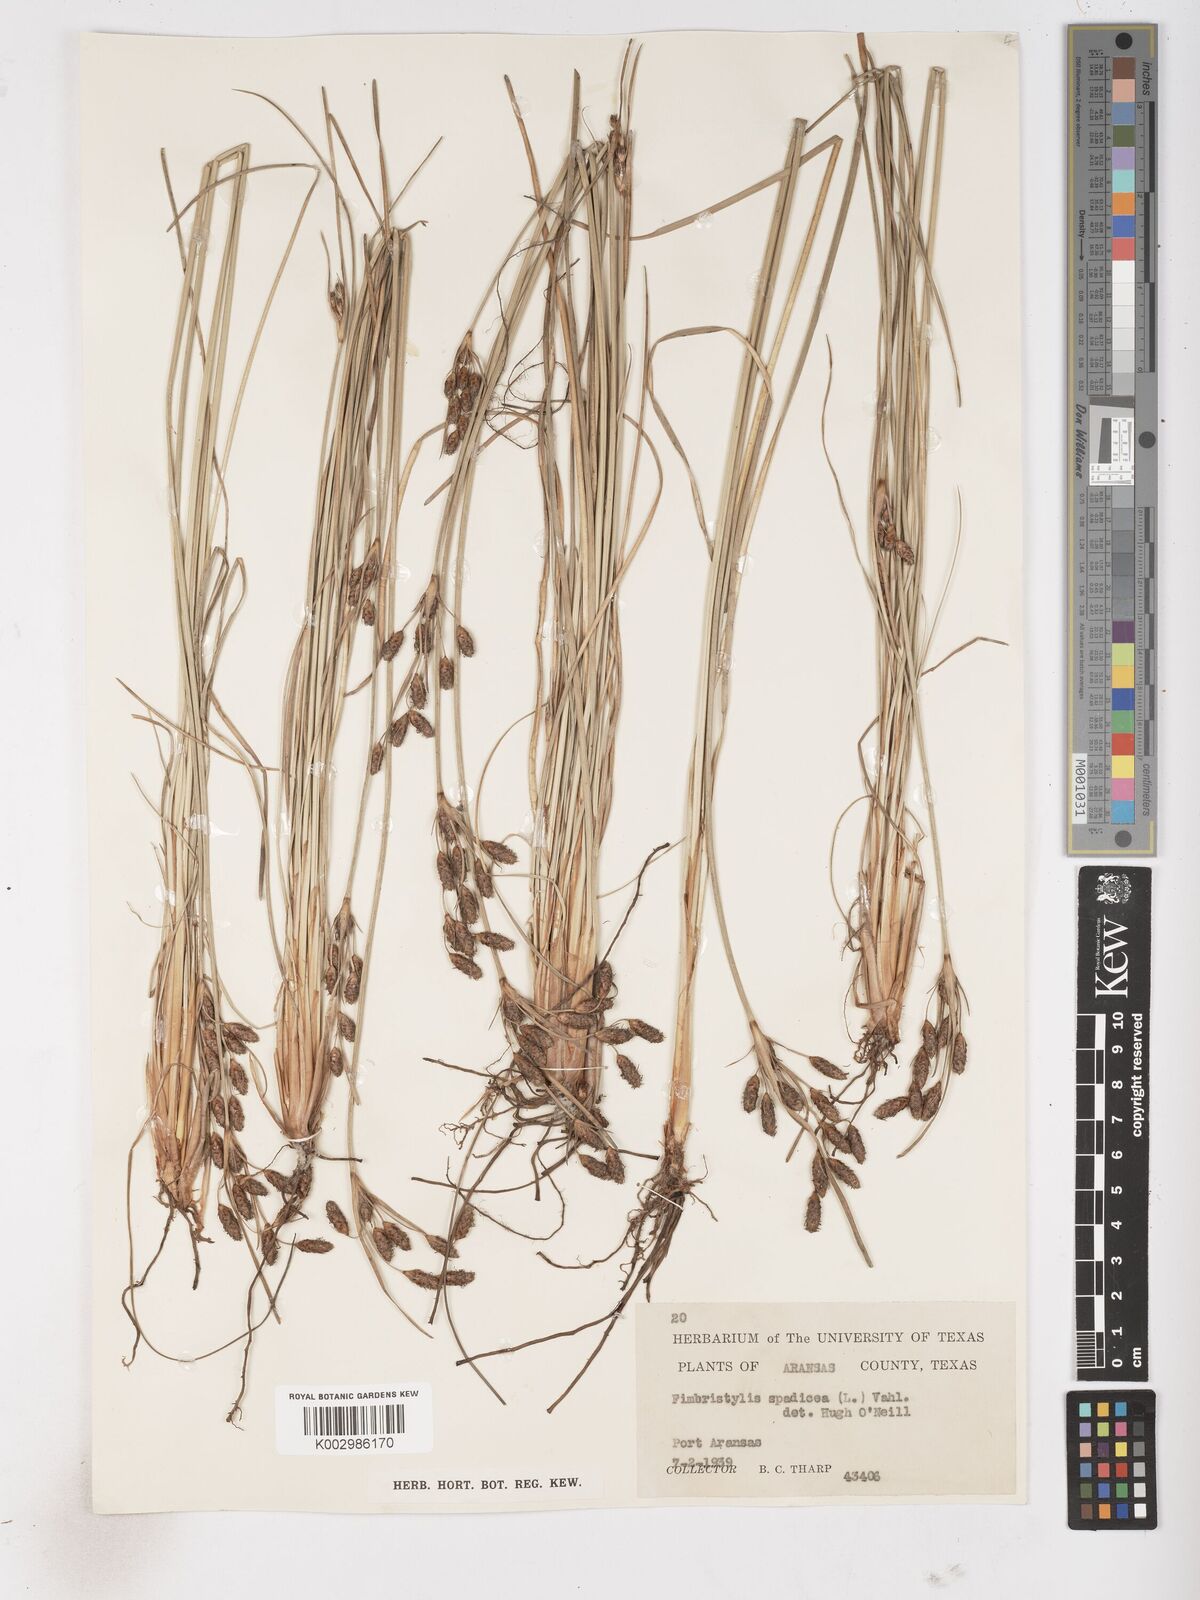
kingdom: Plantae
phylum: Tracheophyta
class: Liliopsida
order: Poales
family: Cyperaceae
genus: Fimbristylis
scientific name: Fimbristylis spadicea
